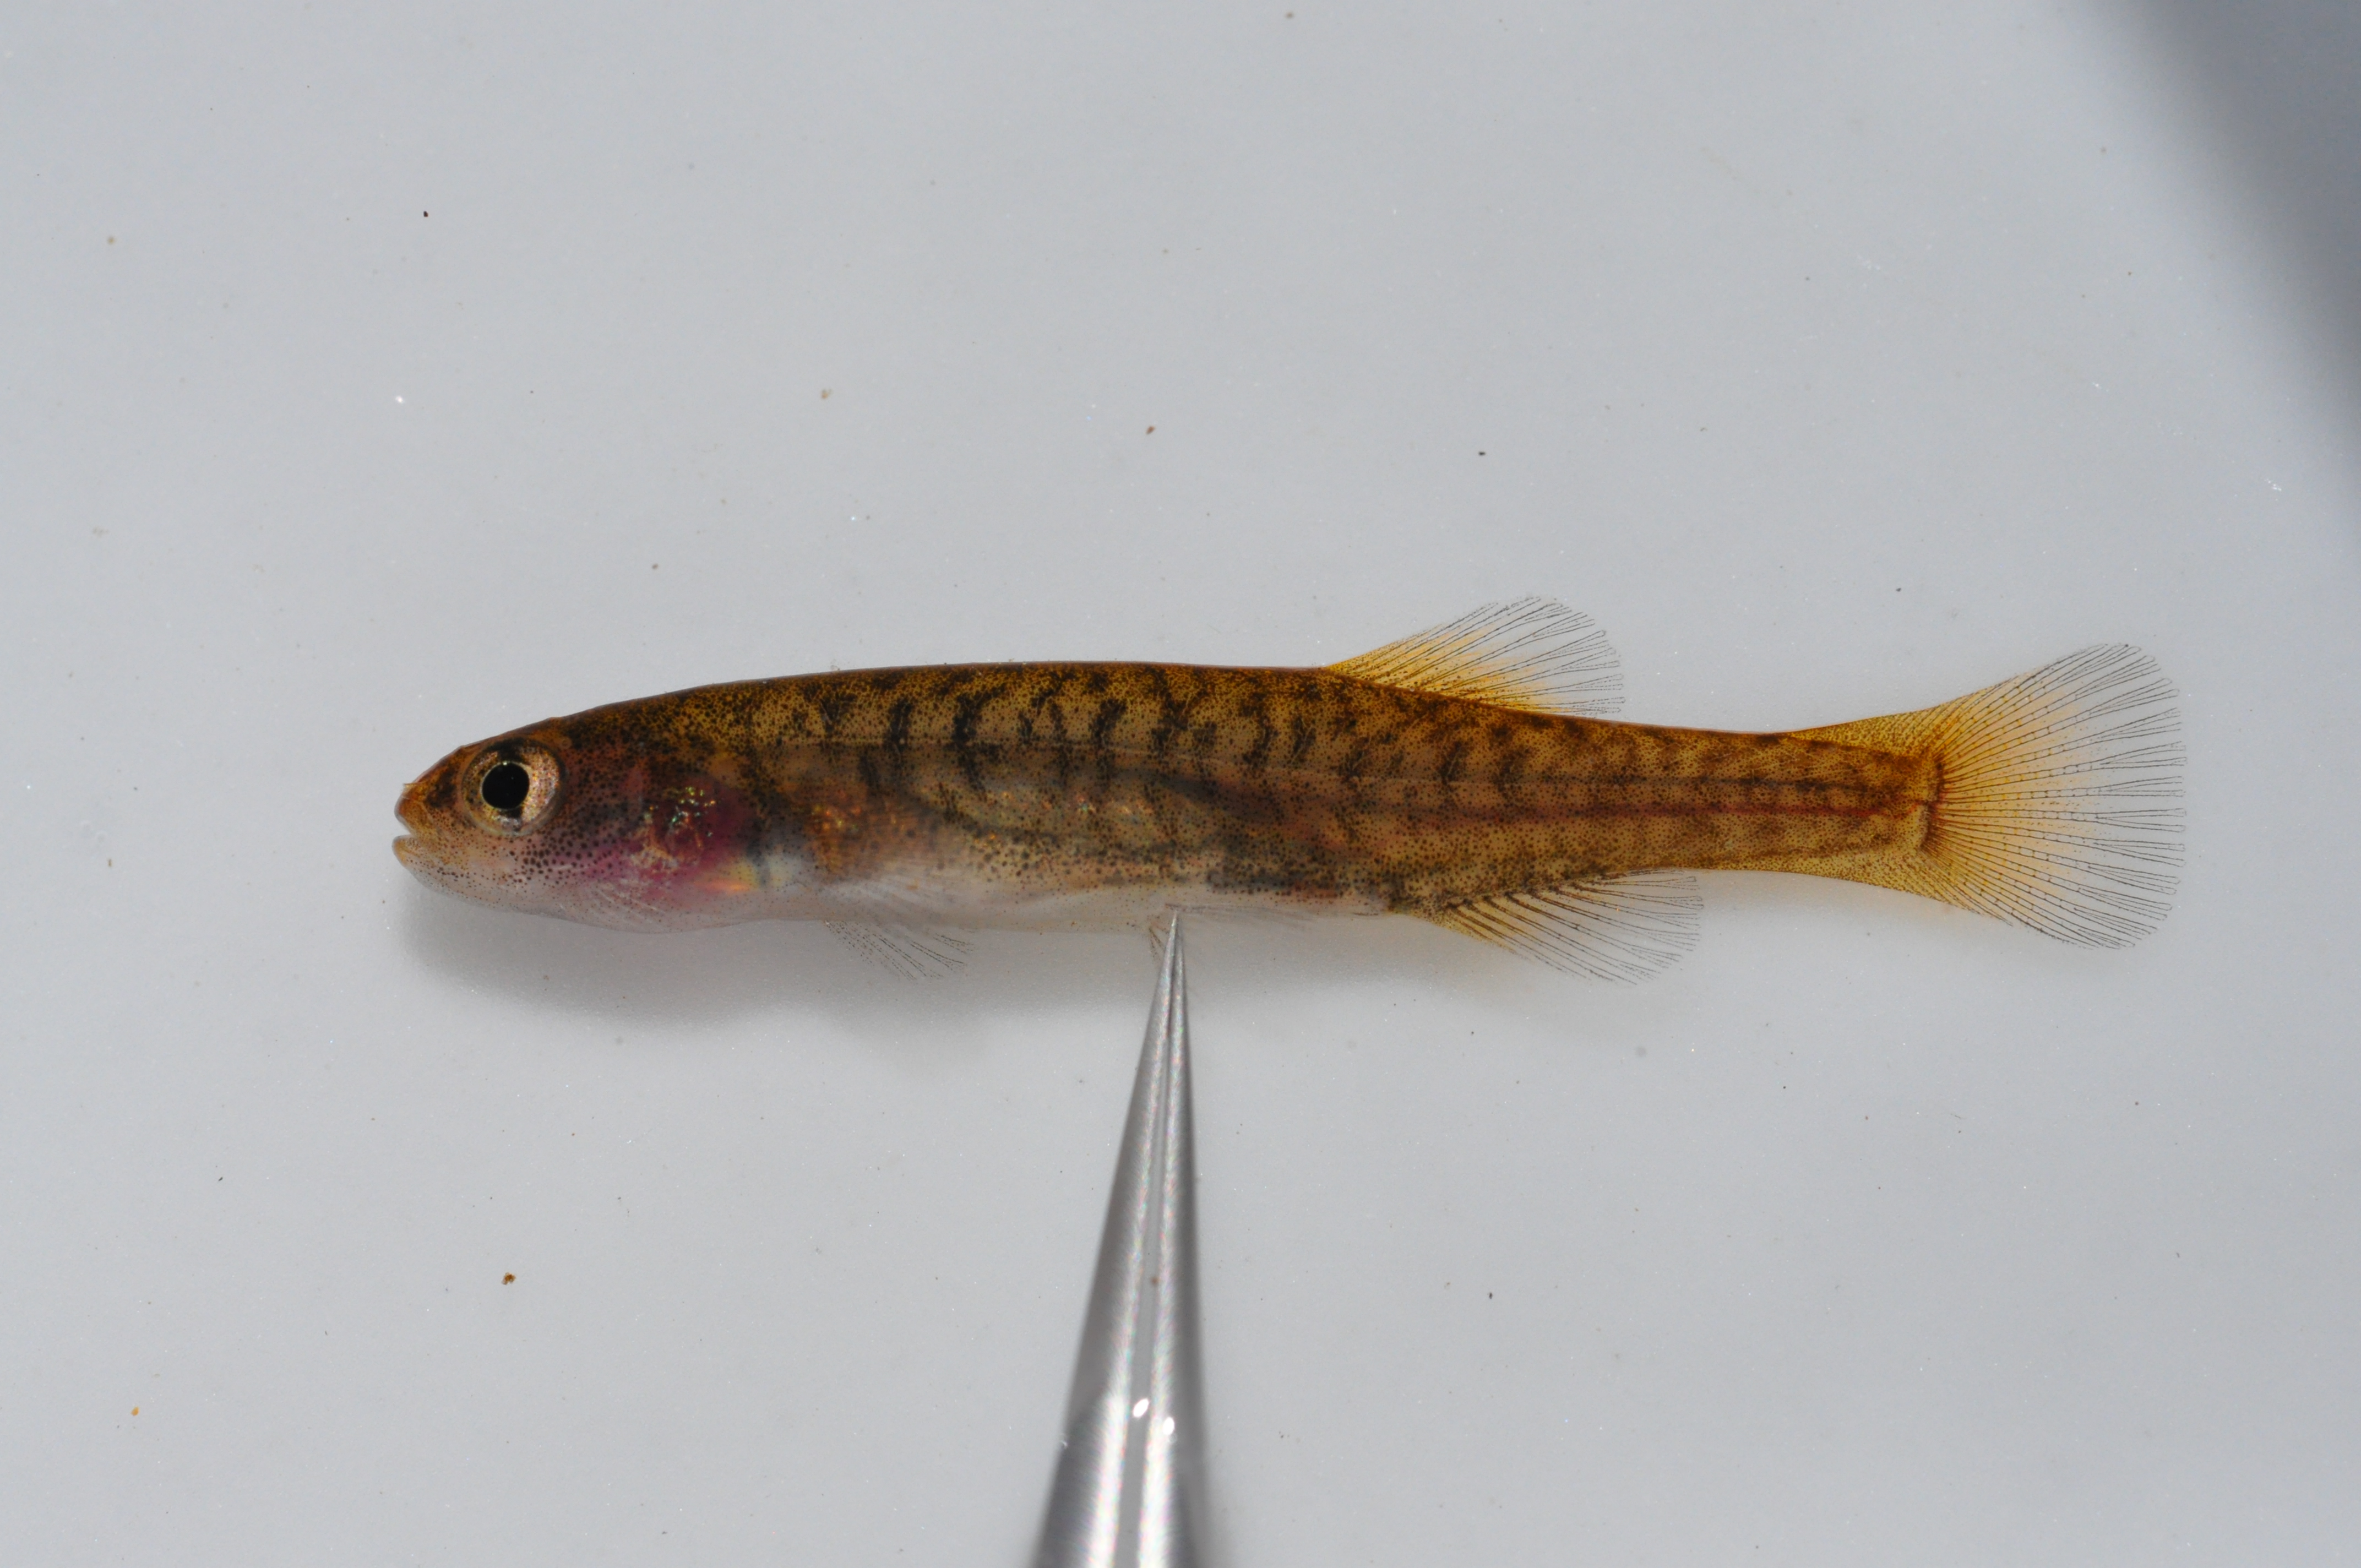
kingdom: Animalia
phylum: Chordata
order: Osmeriformes
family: Galaxiidae
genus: Galaxias
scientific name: Galaxias zebratus
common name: Cape galaxias
